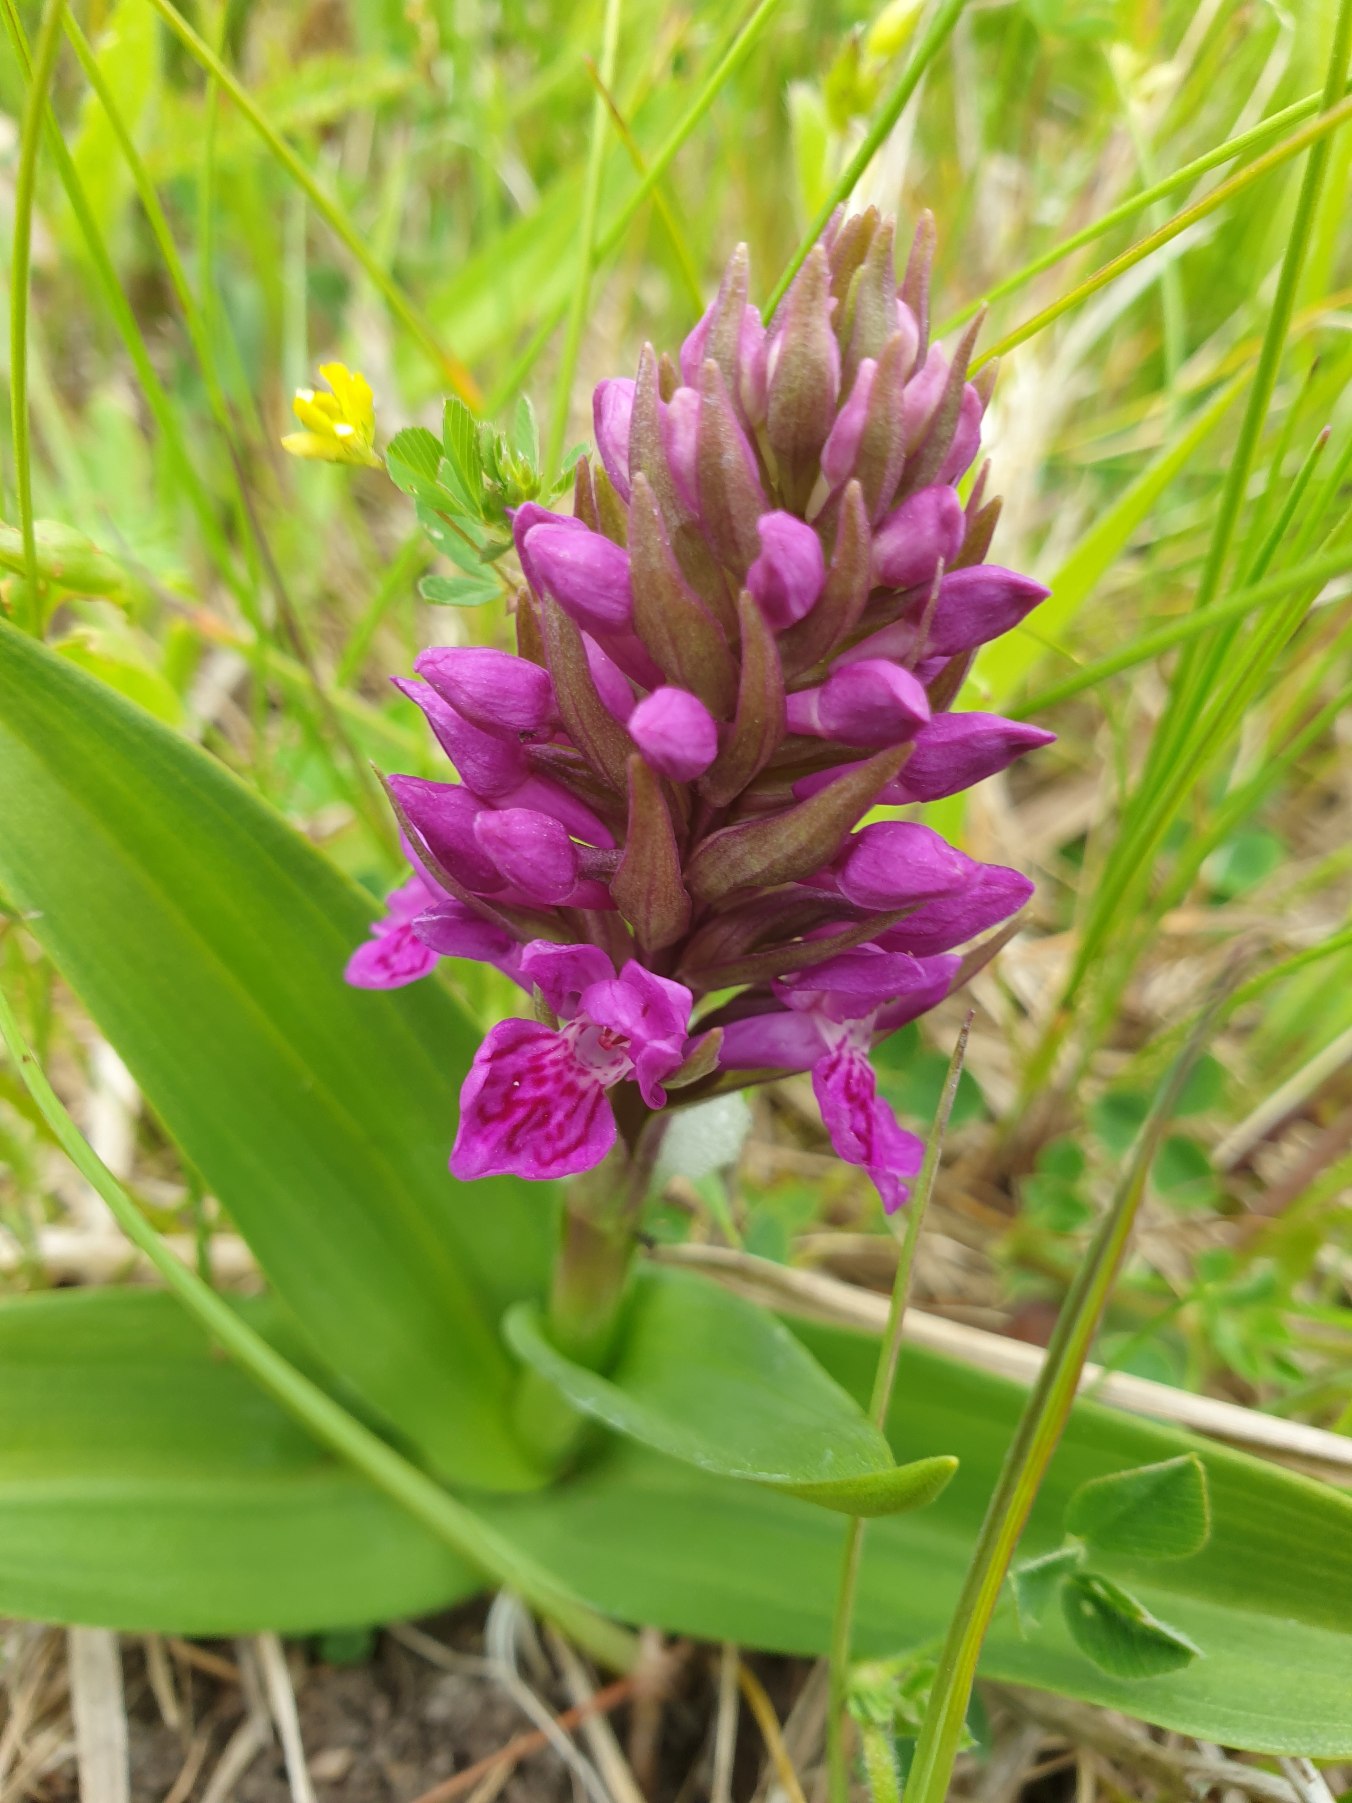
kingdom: Plantae
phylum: Tracheophyta
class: Liliopsida
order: Asparagales
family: Orchidaceae
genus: Dactylorhiza
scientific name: Dactylorhiza majalis
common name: Purpur-gøgeurt
